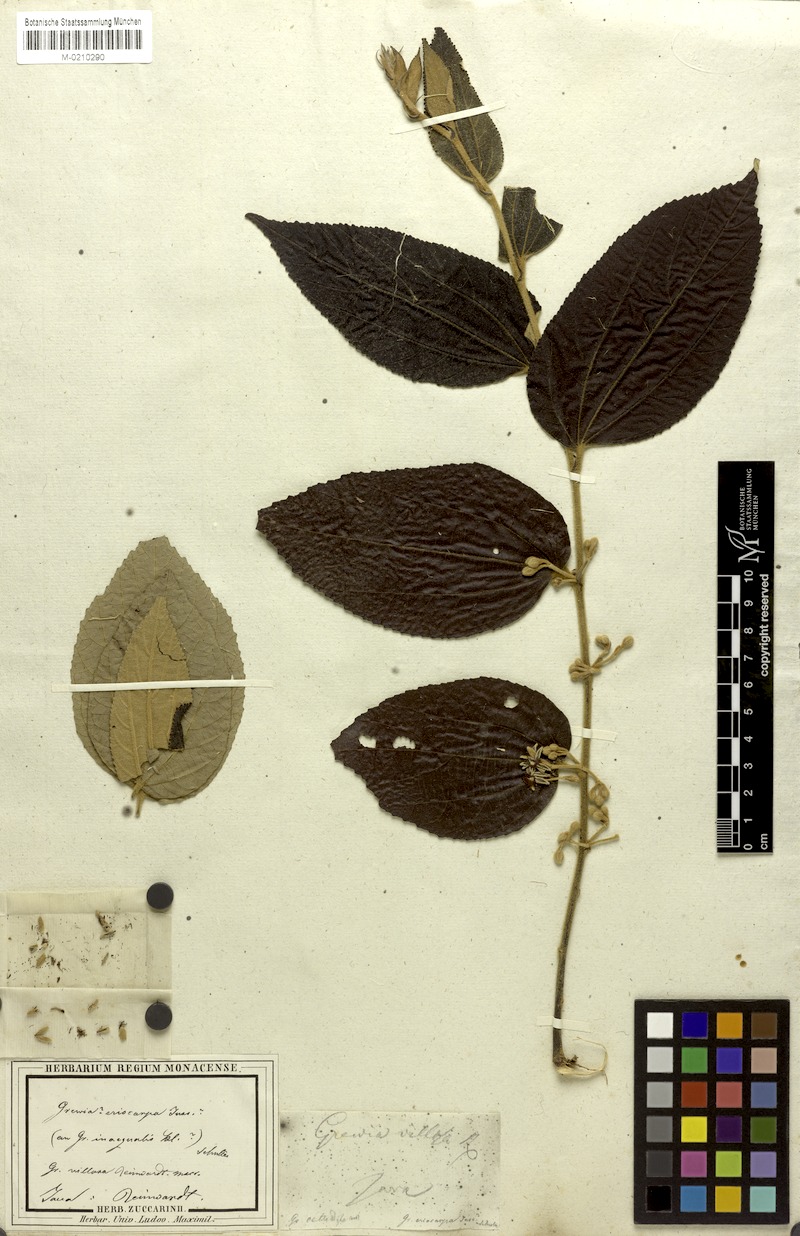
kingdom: Plantae
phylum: Tracheophyta
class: Magnoliopsida
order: Malvales
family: Malvaceae
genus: Grewia
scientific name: Grewia eriocarpa
